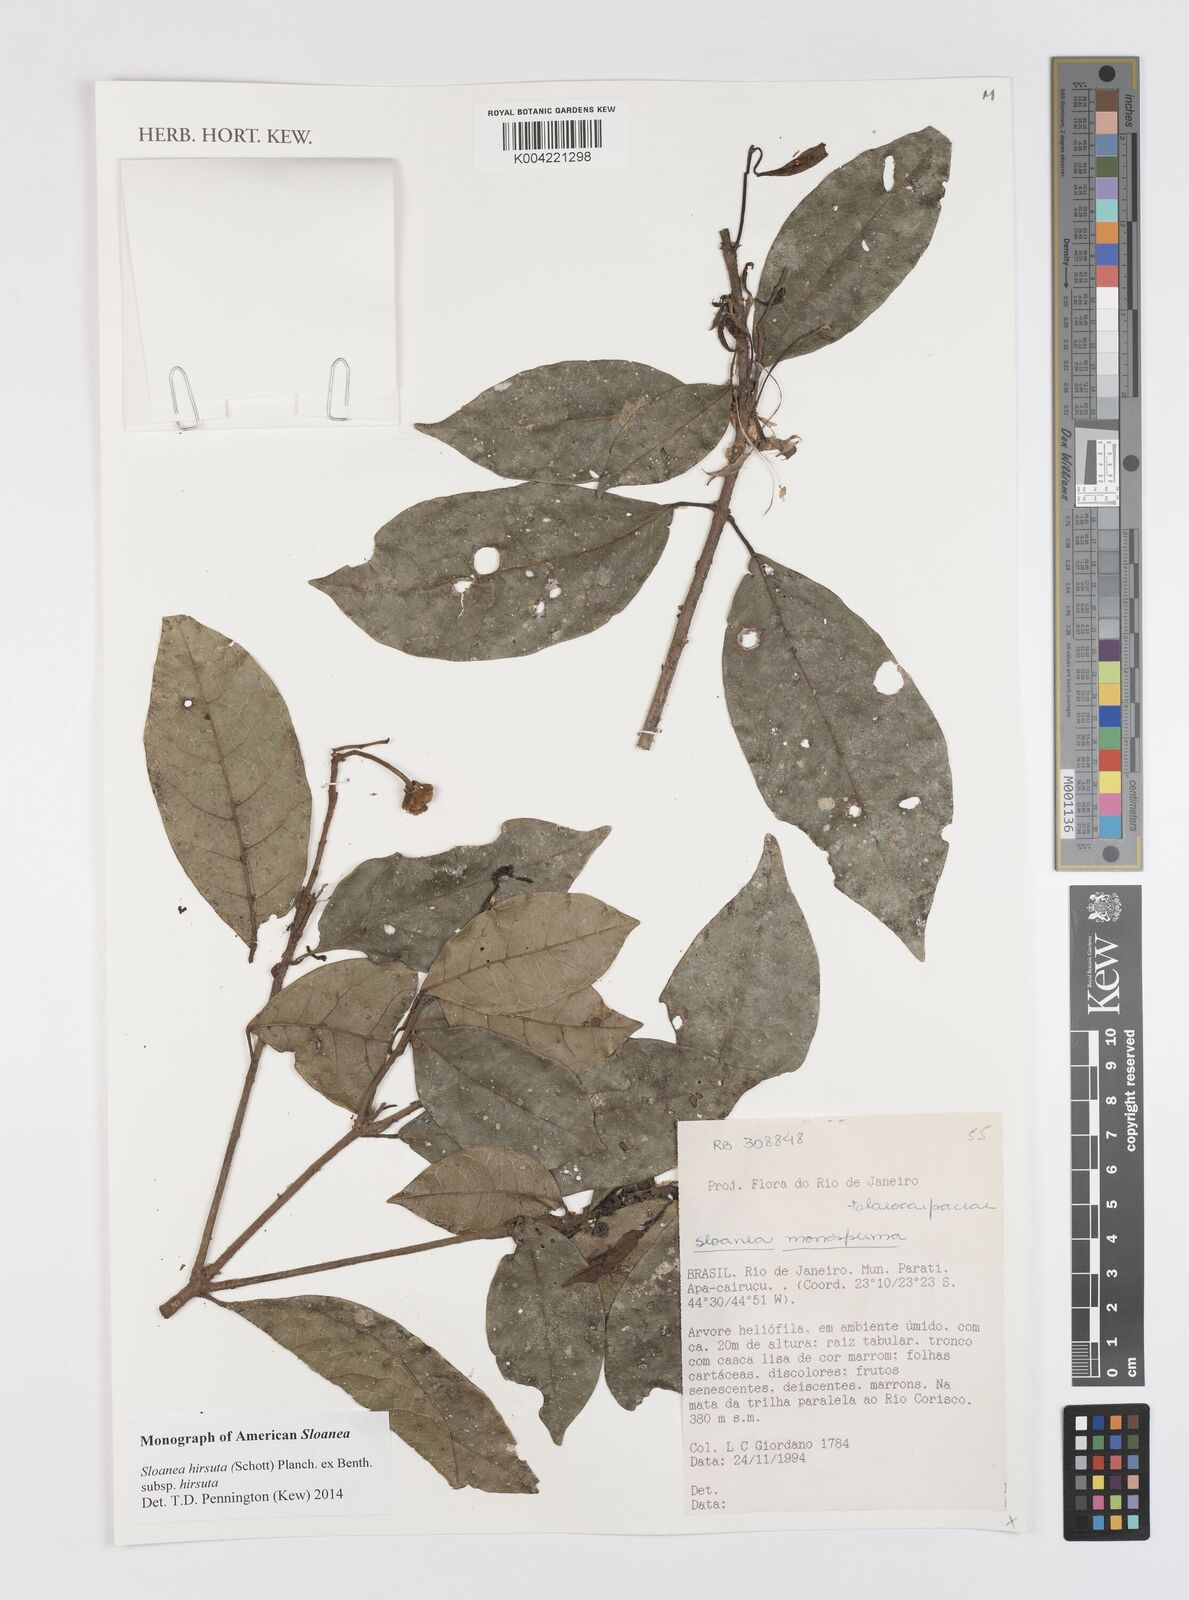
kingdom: Plantae
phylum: Tracheophyta
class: Magnoliopsida
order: Oxalidales
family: Elaeocarpaceae
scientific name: Elaeocarpaceae
